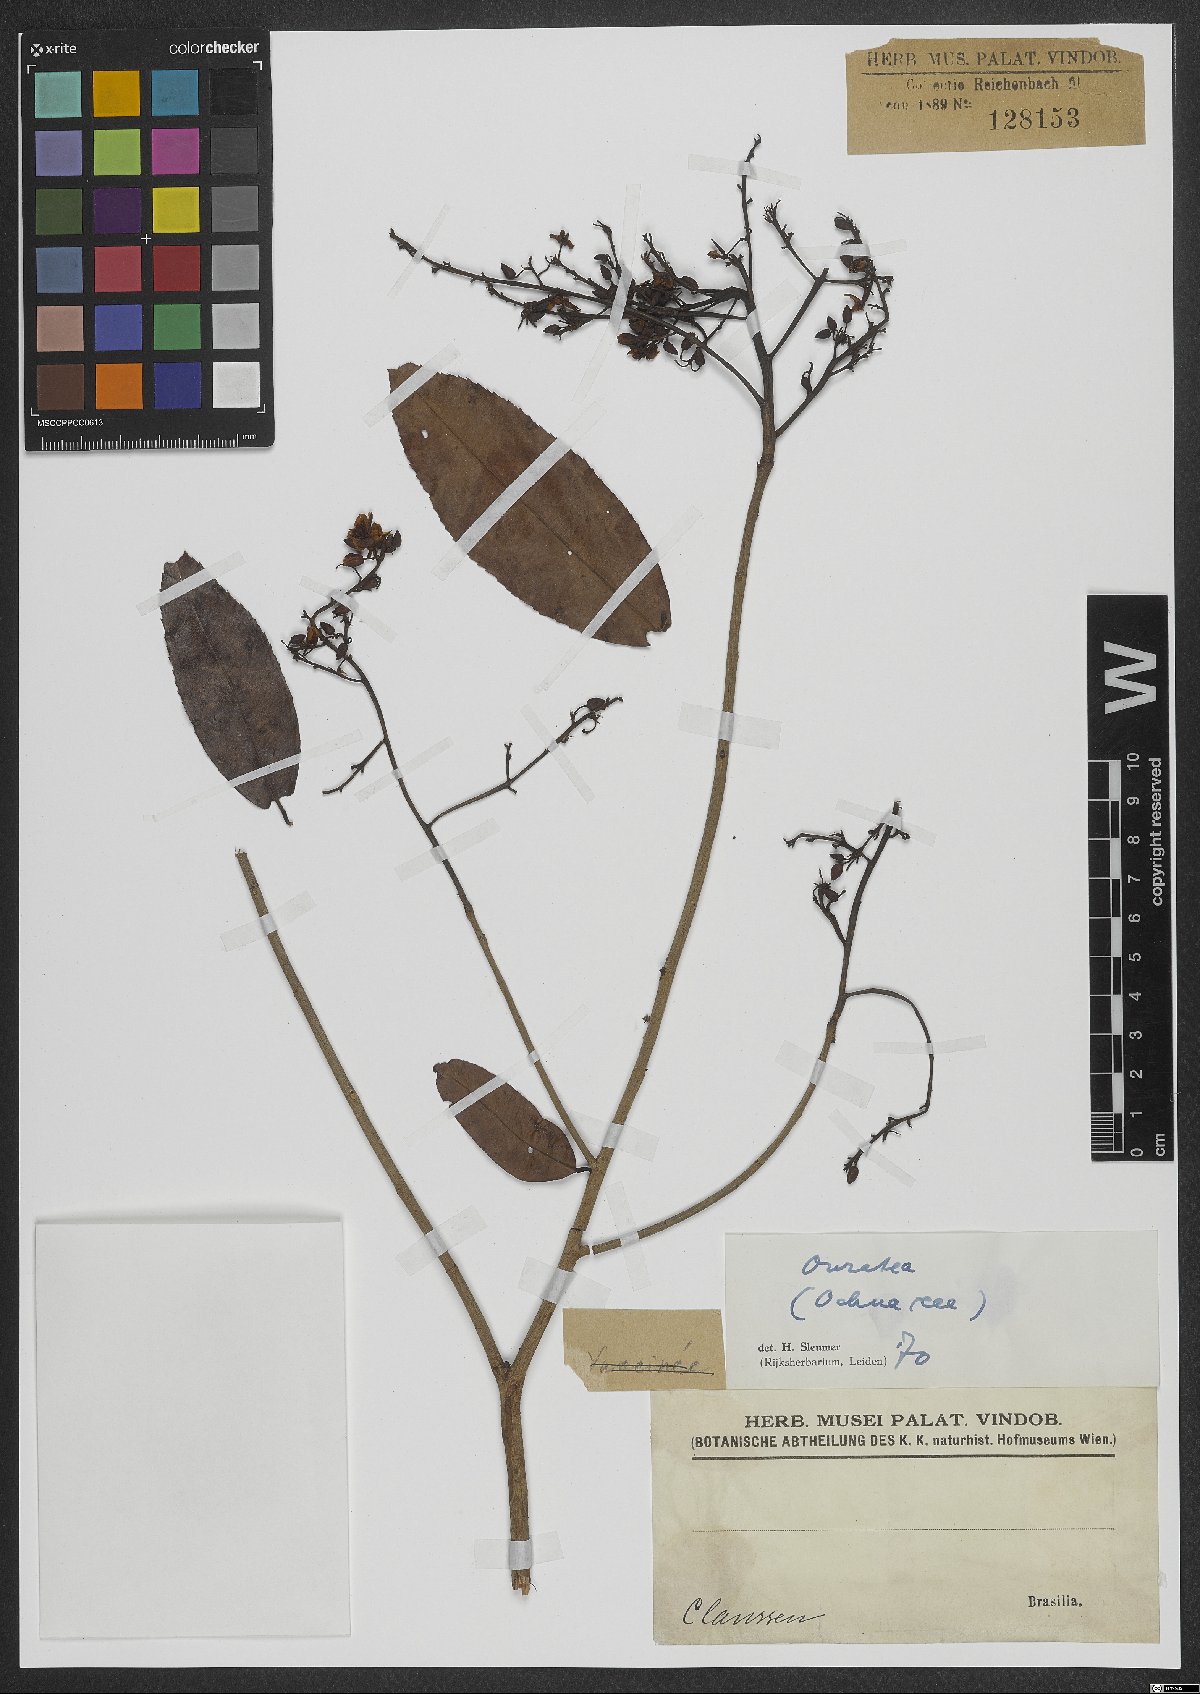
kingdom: Plantae
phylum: Tracheophyta
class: Magnoliopsida
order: Malpighiales
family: Ochnaceae
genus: Ouratea
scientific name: Ouratea
